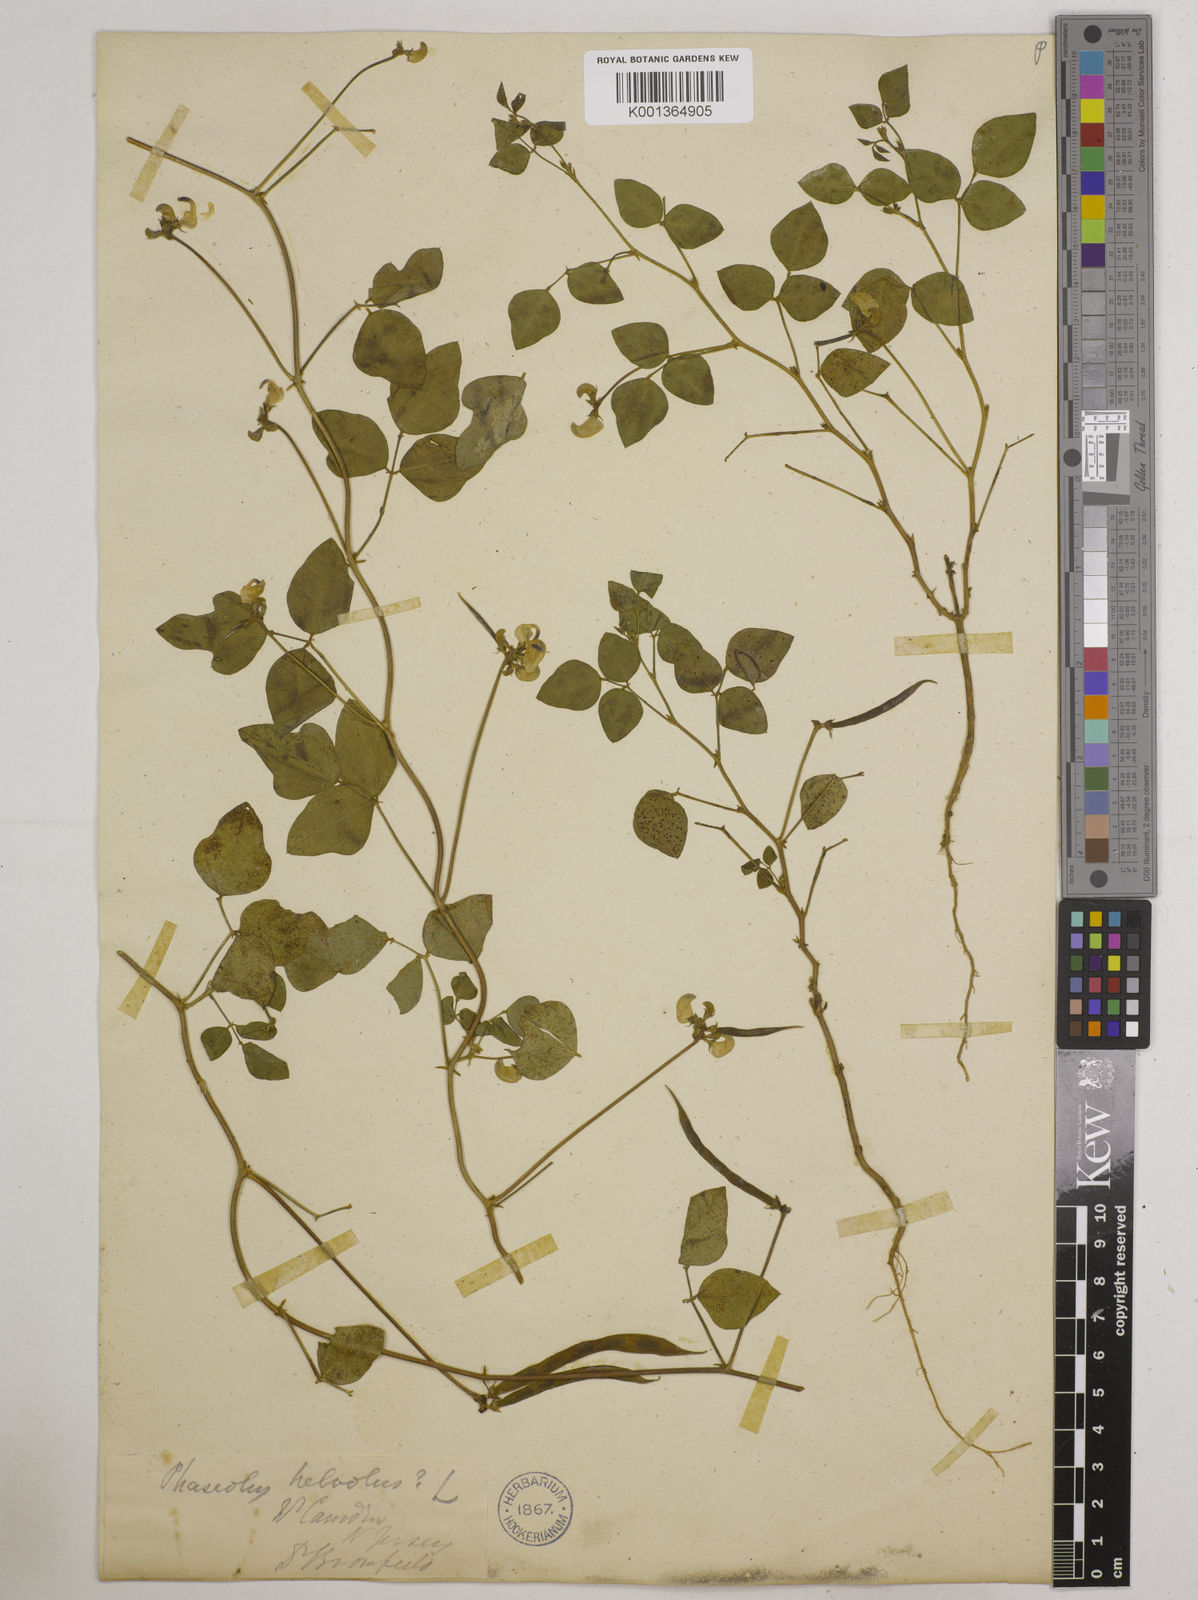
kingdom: Plantae
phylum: Tracheophyta
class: Magnoliopsida
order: Fabales
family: Fabaceae
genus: Strophostyles
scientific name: Strophostyles
